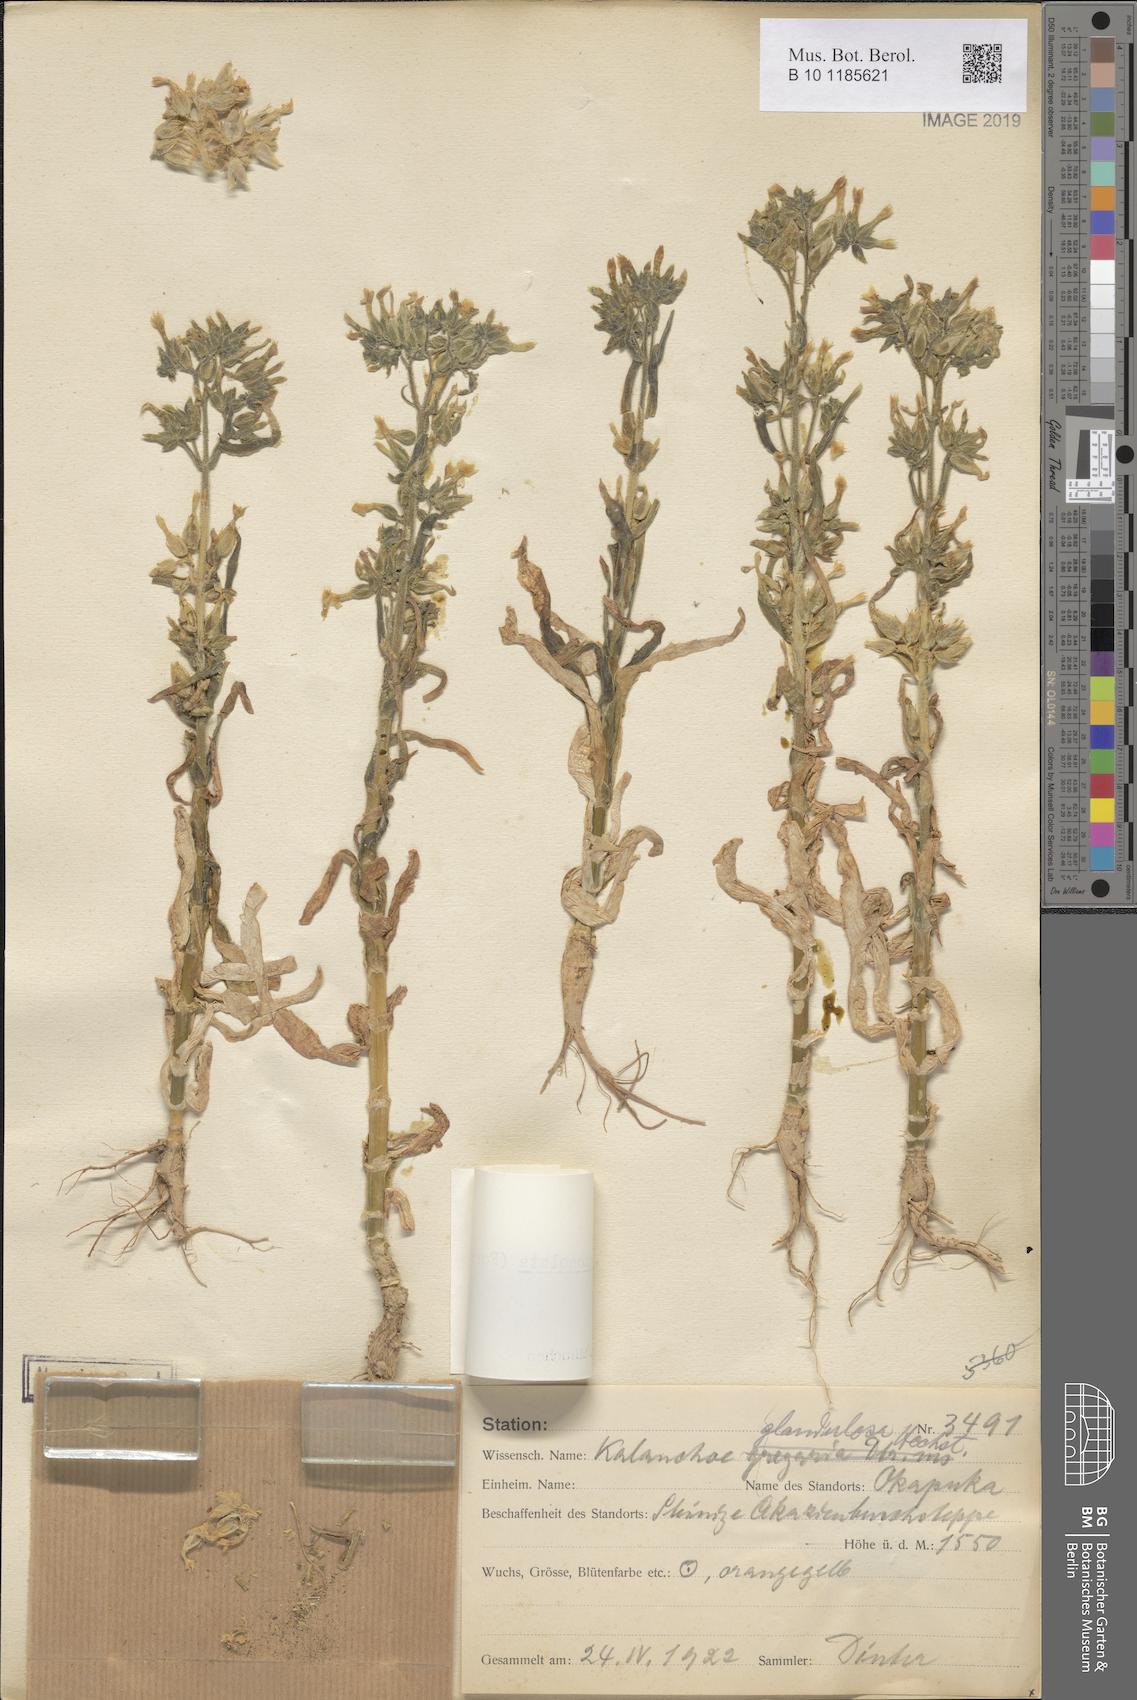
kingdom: Plantae
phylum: Tracheophyta
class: Magnoliopsida
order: Saxifragales
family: Crassulaceae
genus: Kalanchoe
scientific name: Kalanchoe lanceolata
